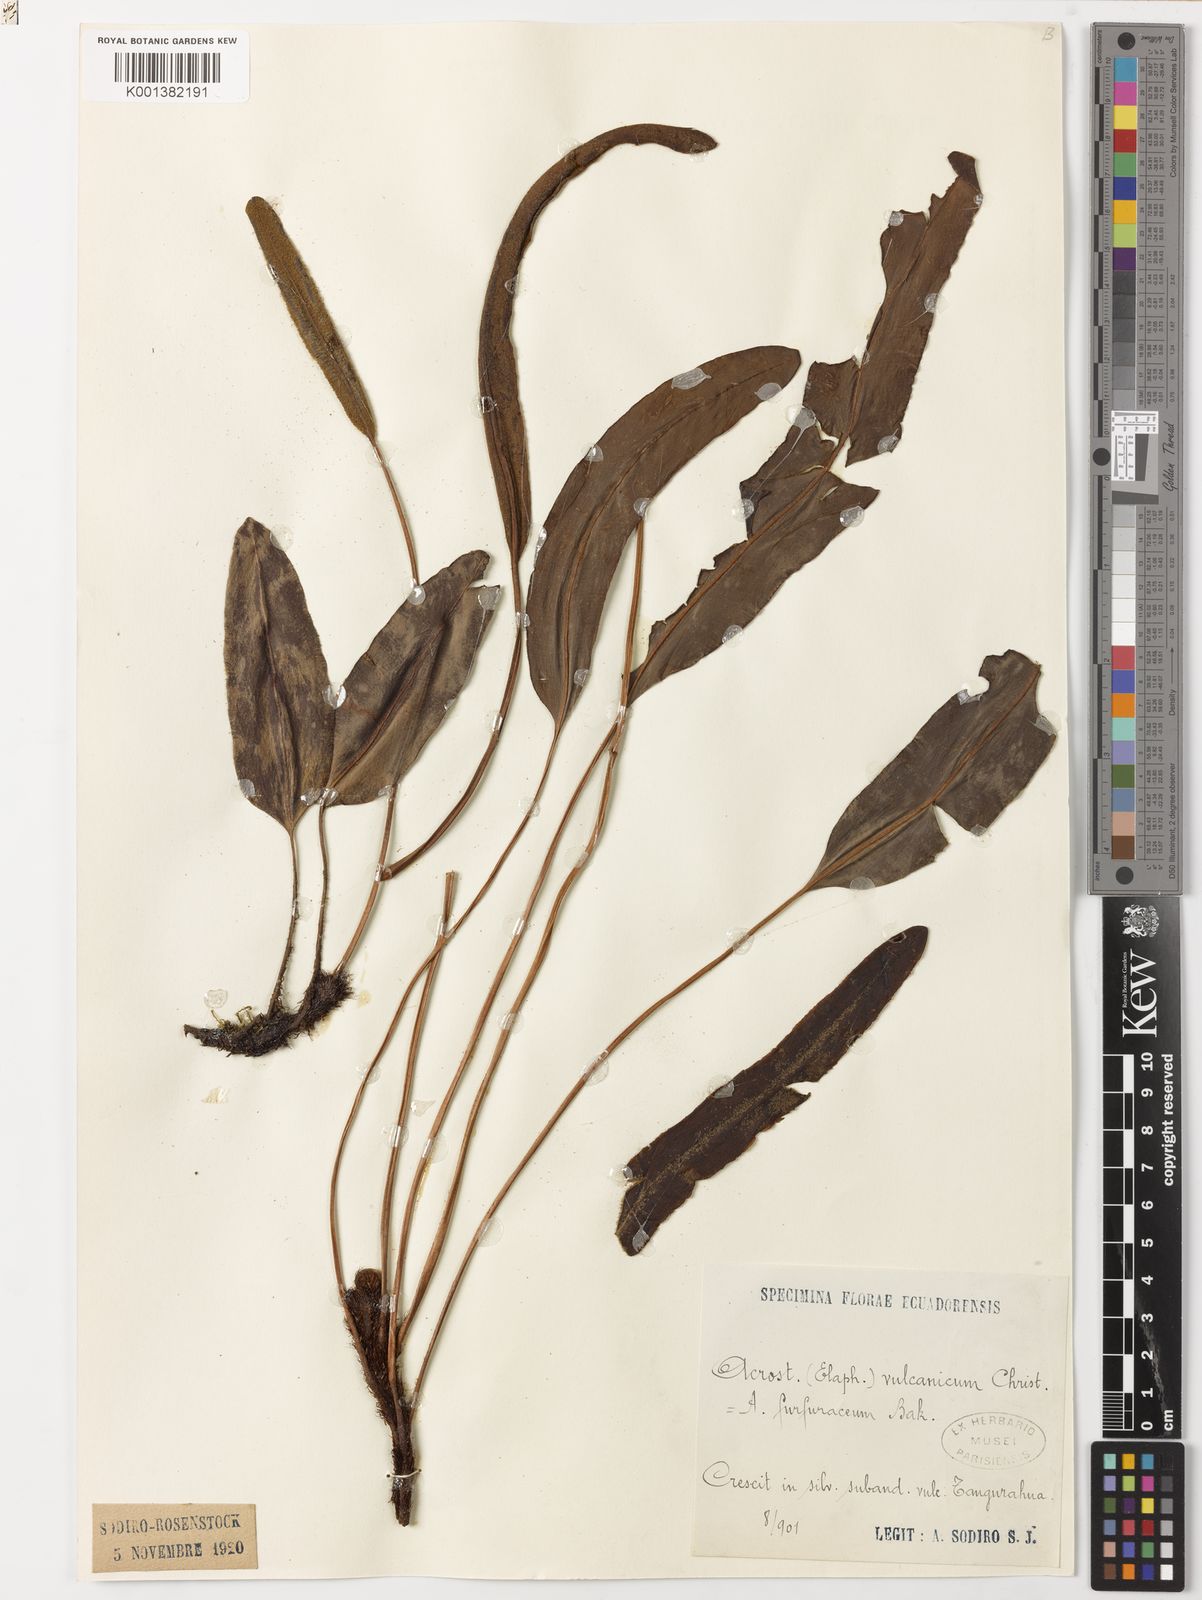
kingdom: Plantae
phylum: Tracheophyta
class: Polypodiopsida
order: Polypodiales
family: Dryopteridaceae
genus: Elaphoglossum
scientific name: Elaphoglossum vulcanicum
